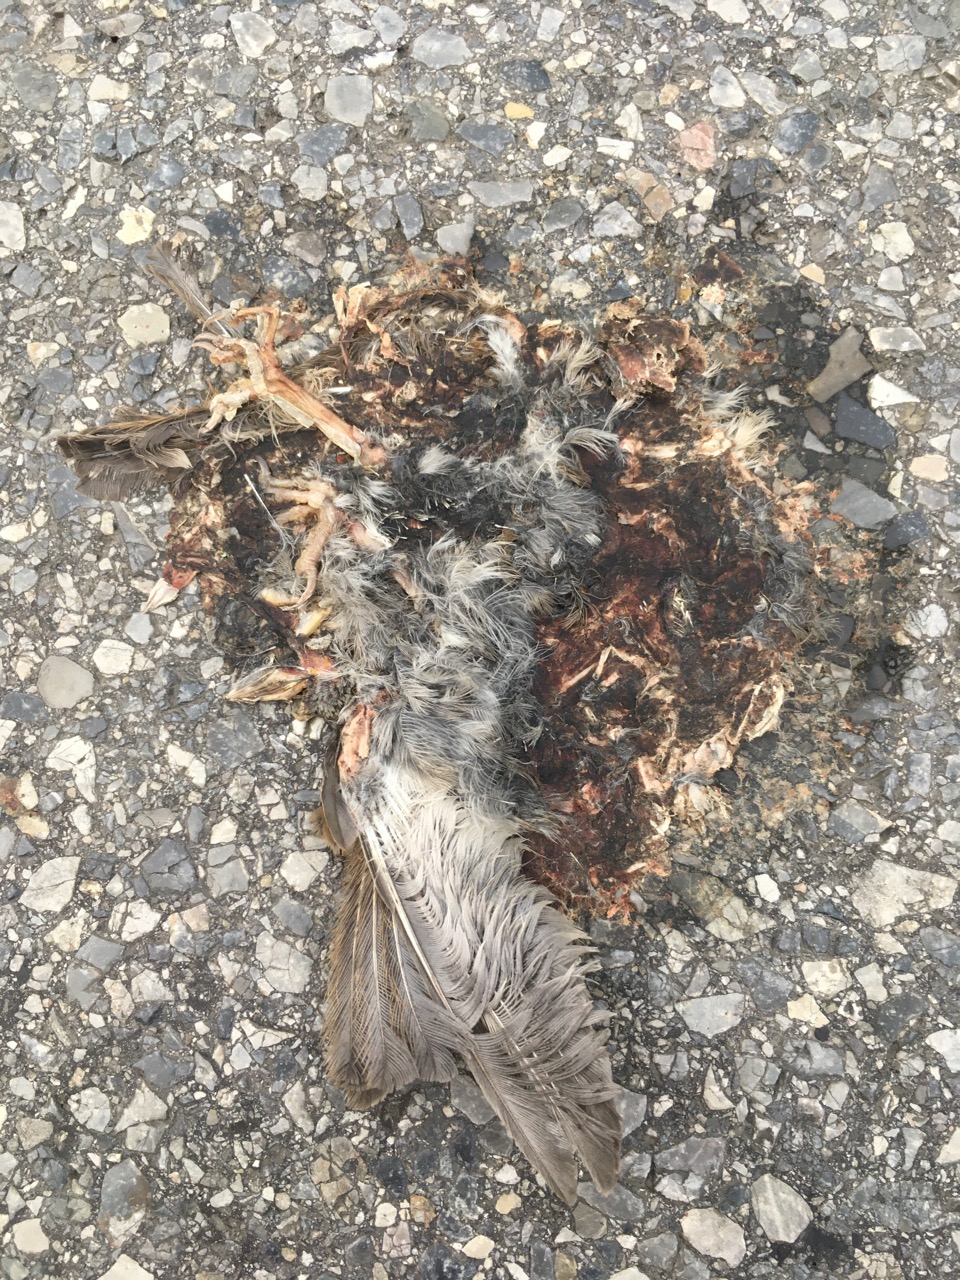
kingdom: Animalia
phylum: Chordata
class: Aves
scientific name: Aves
